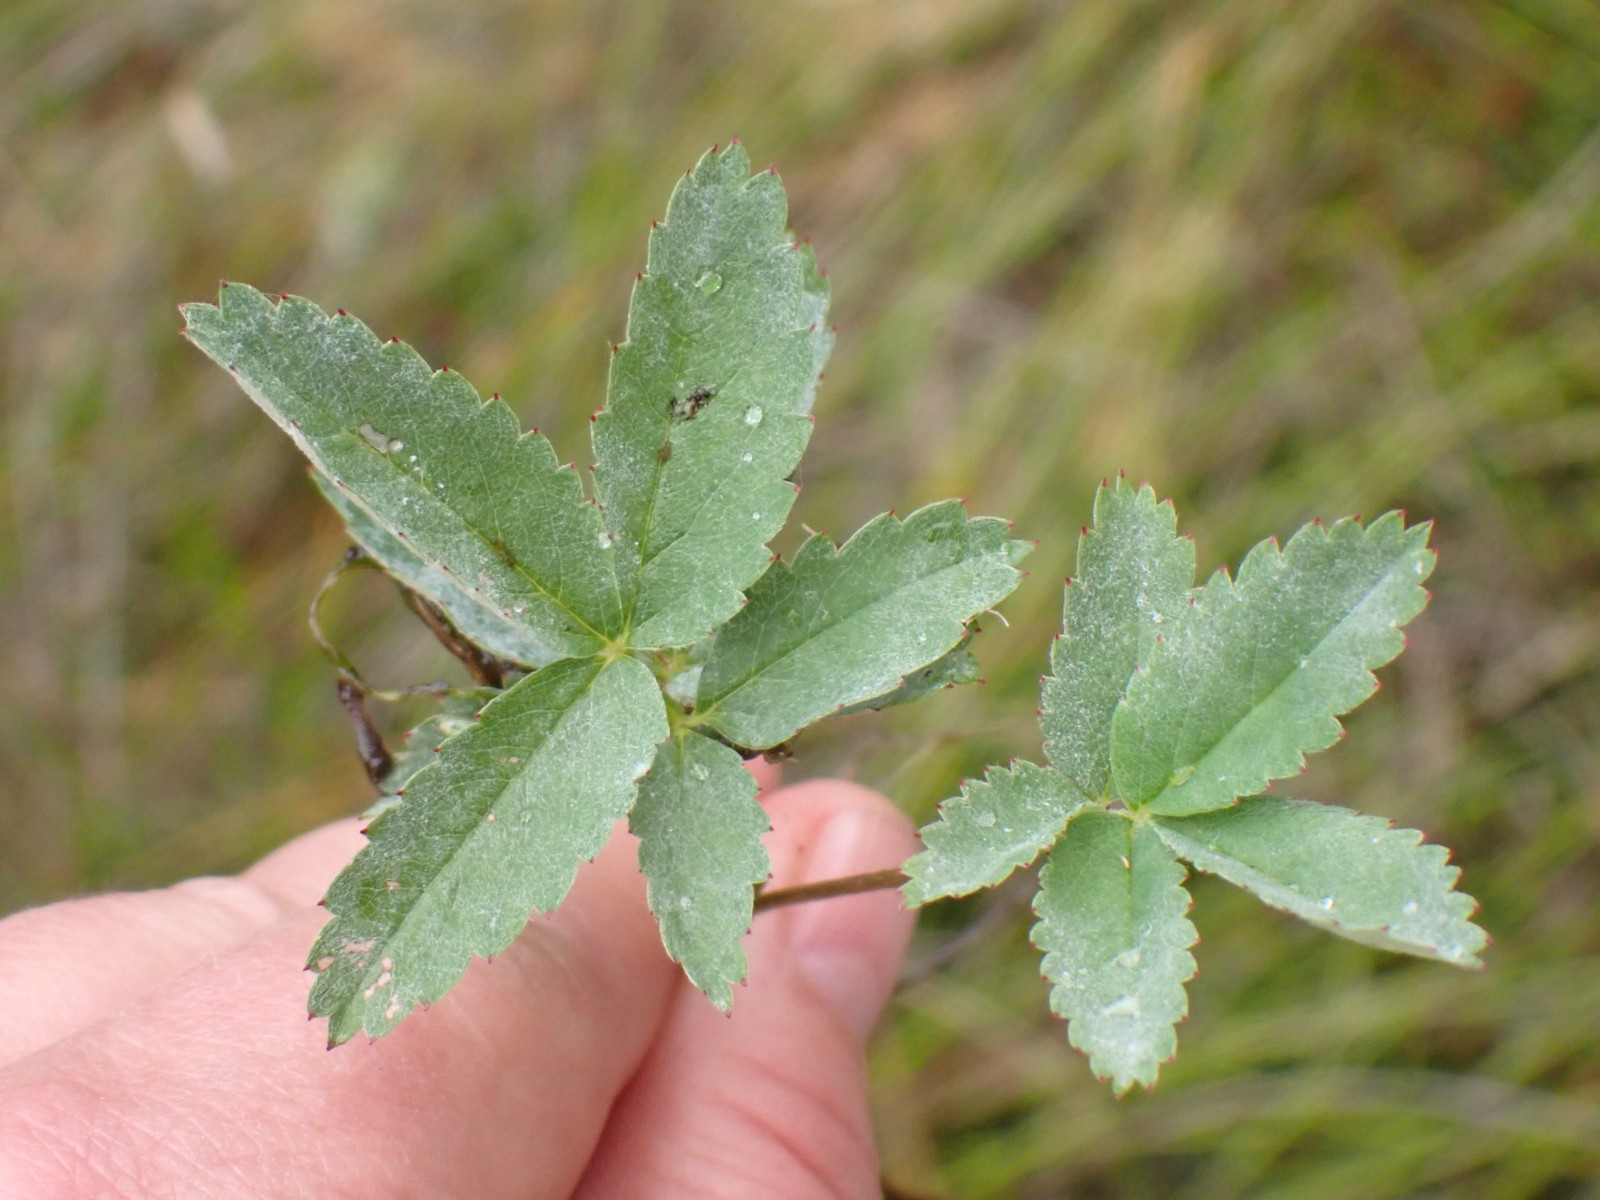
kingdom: Fungi
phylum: Ascomycota
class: Leotiomycetes
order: Helotiales
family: Erysiphaceae
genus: Podosphaera
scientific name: Podosphaera aphanis
